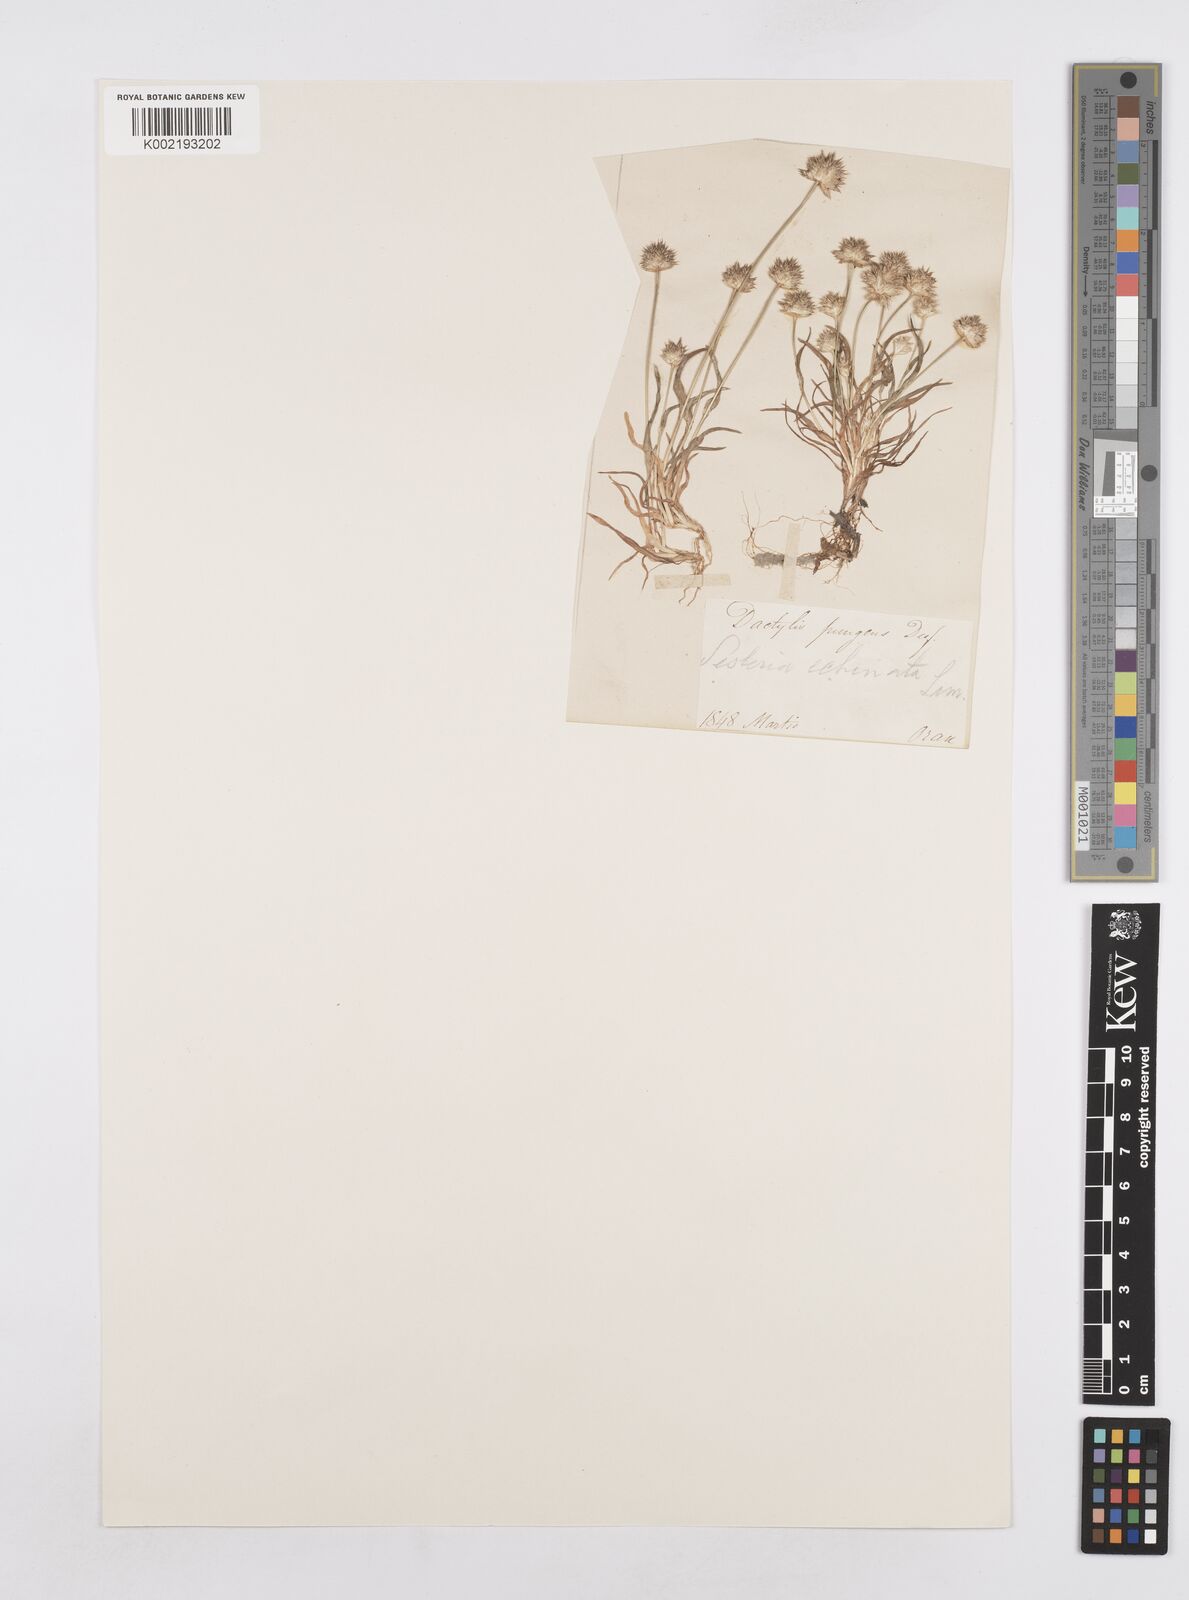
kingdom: Plantae
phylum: Tracheophyta
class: Liliopsida
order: Poales
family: Poaceae
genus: Ammochloa
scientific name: Ammochloa pungens
